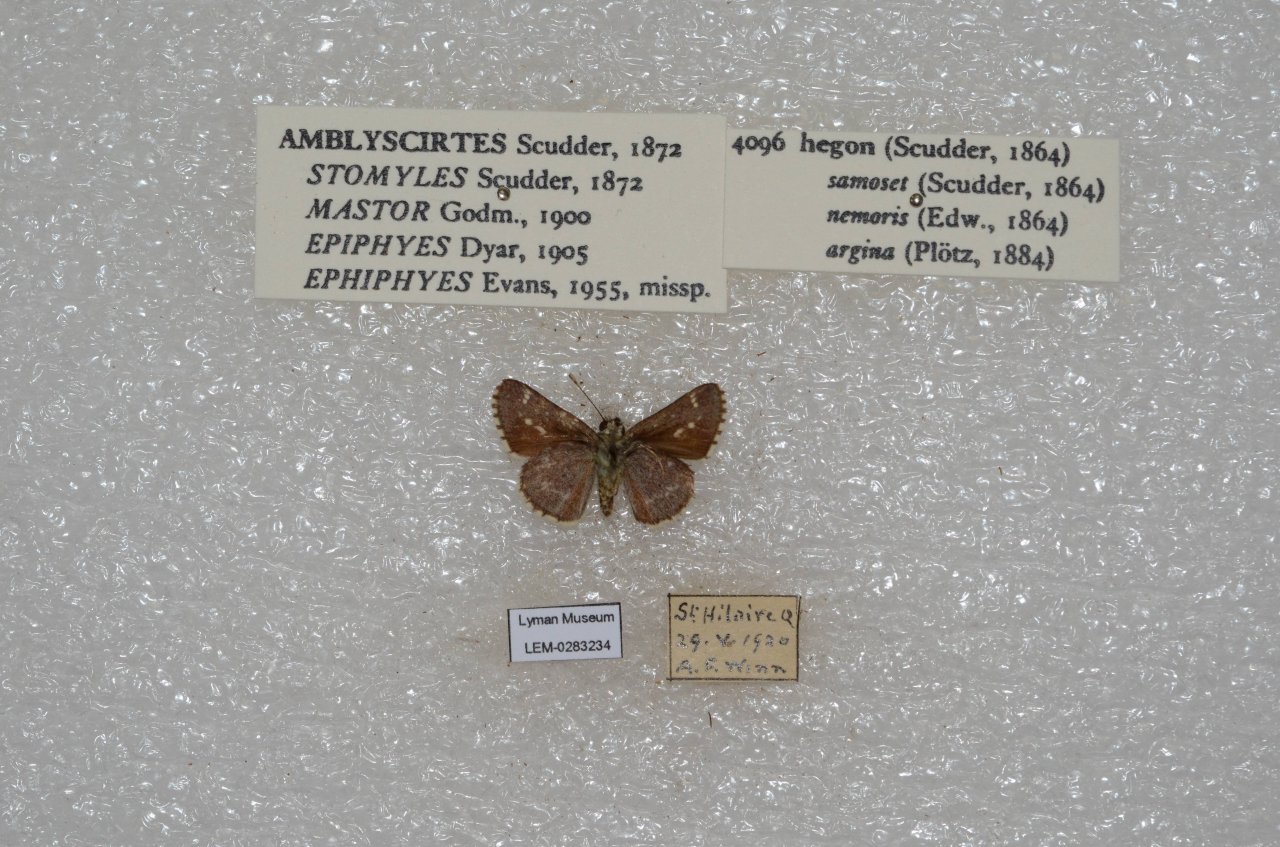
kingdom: Animalia
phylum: Arthropoda
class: Insecta
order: Lepidoptera
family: Hesperiidae
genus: Mastor
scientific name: Mastor hegon
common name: Pepper and Salt Skipper
